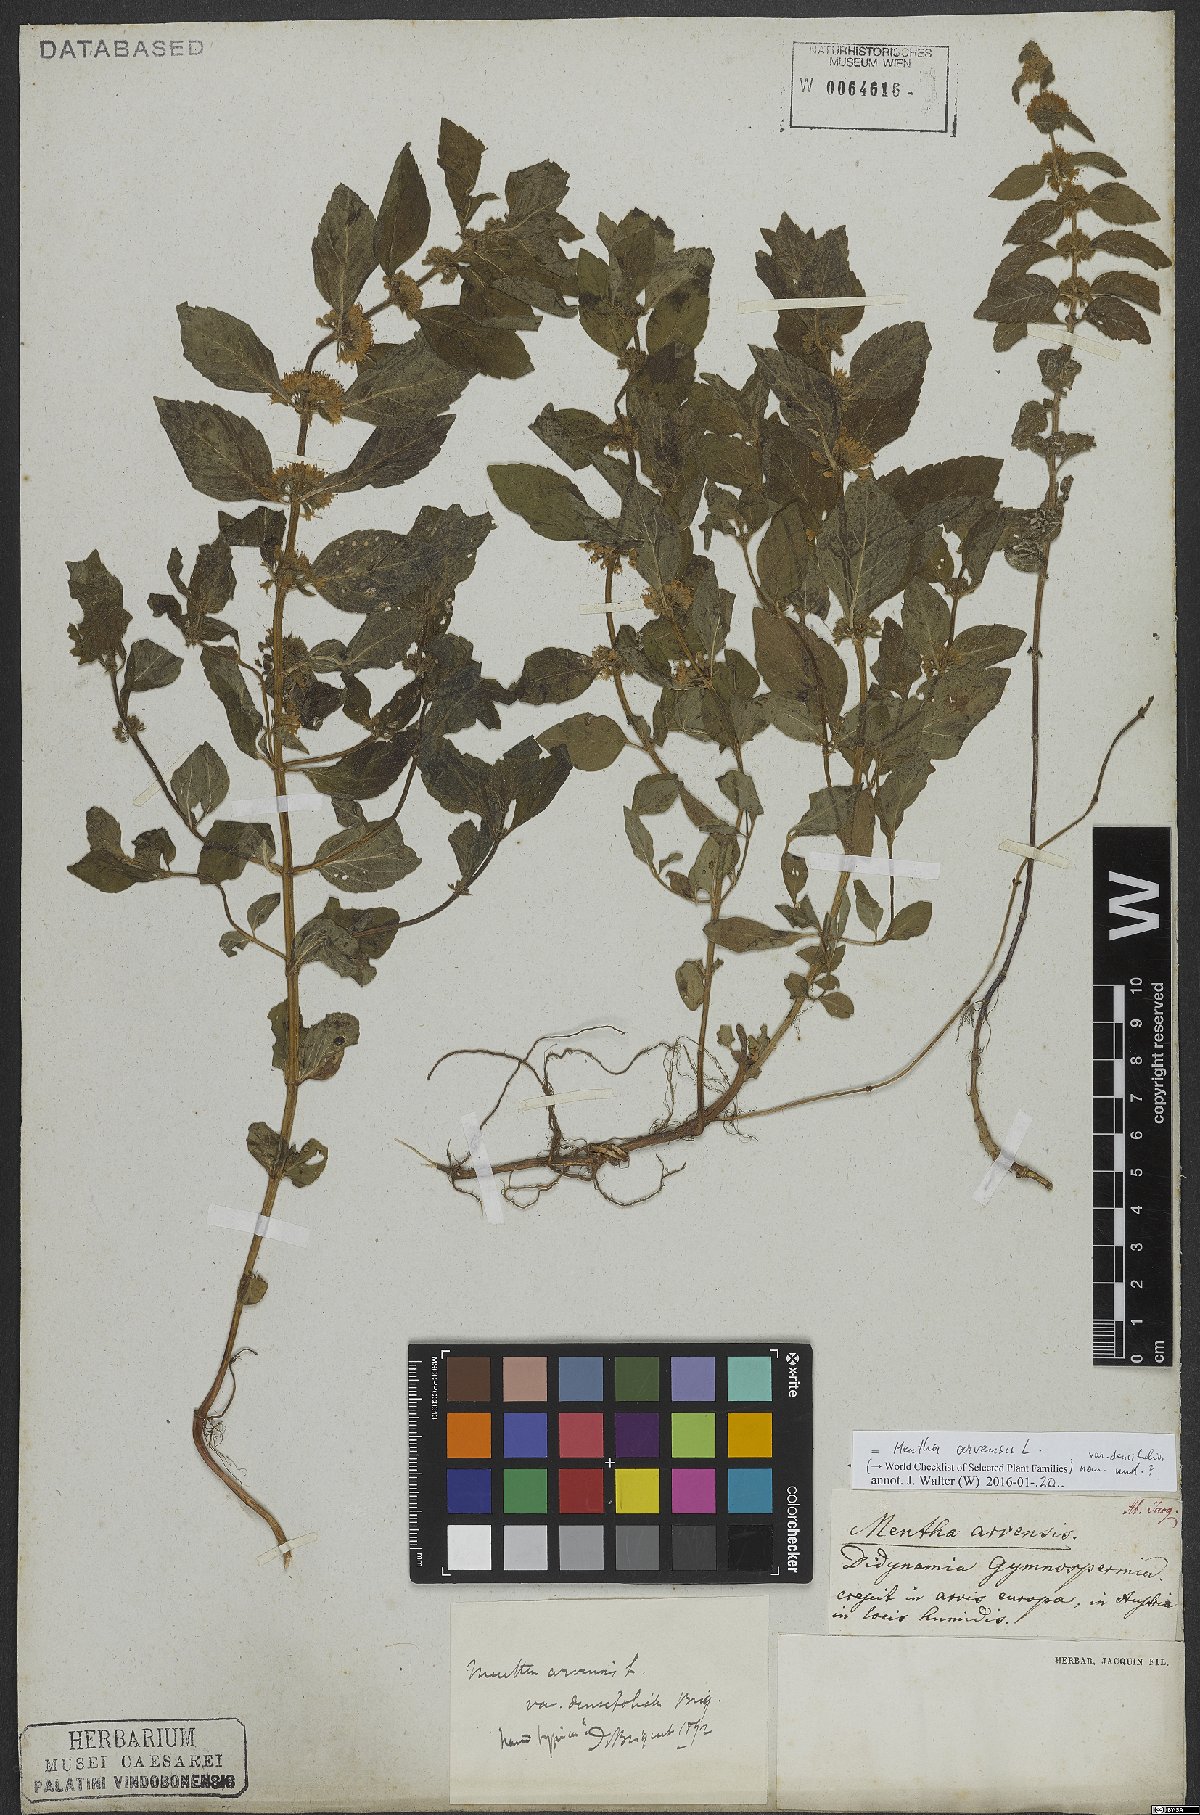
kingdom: Plantae
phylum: Tracheophyta
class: Magnoliopsida
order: Lamiales
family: Lamiaceae
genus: Mentha
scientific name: Mentha arvensis
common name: Corn mint
